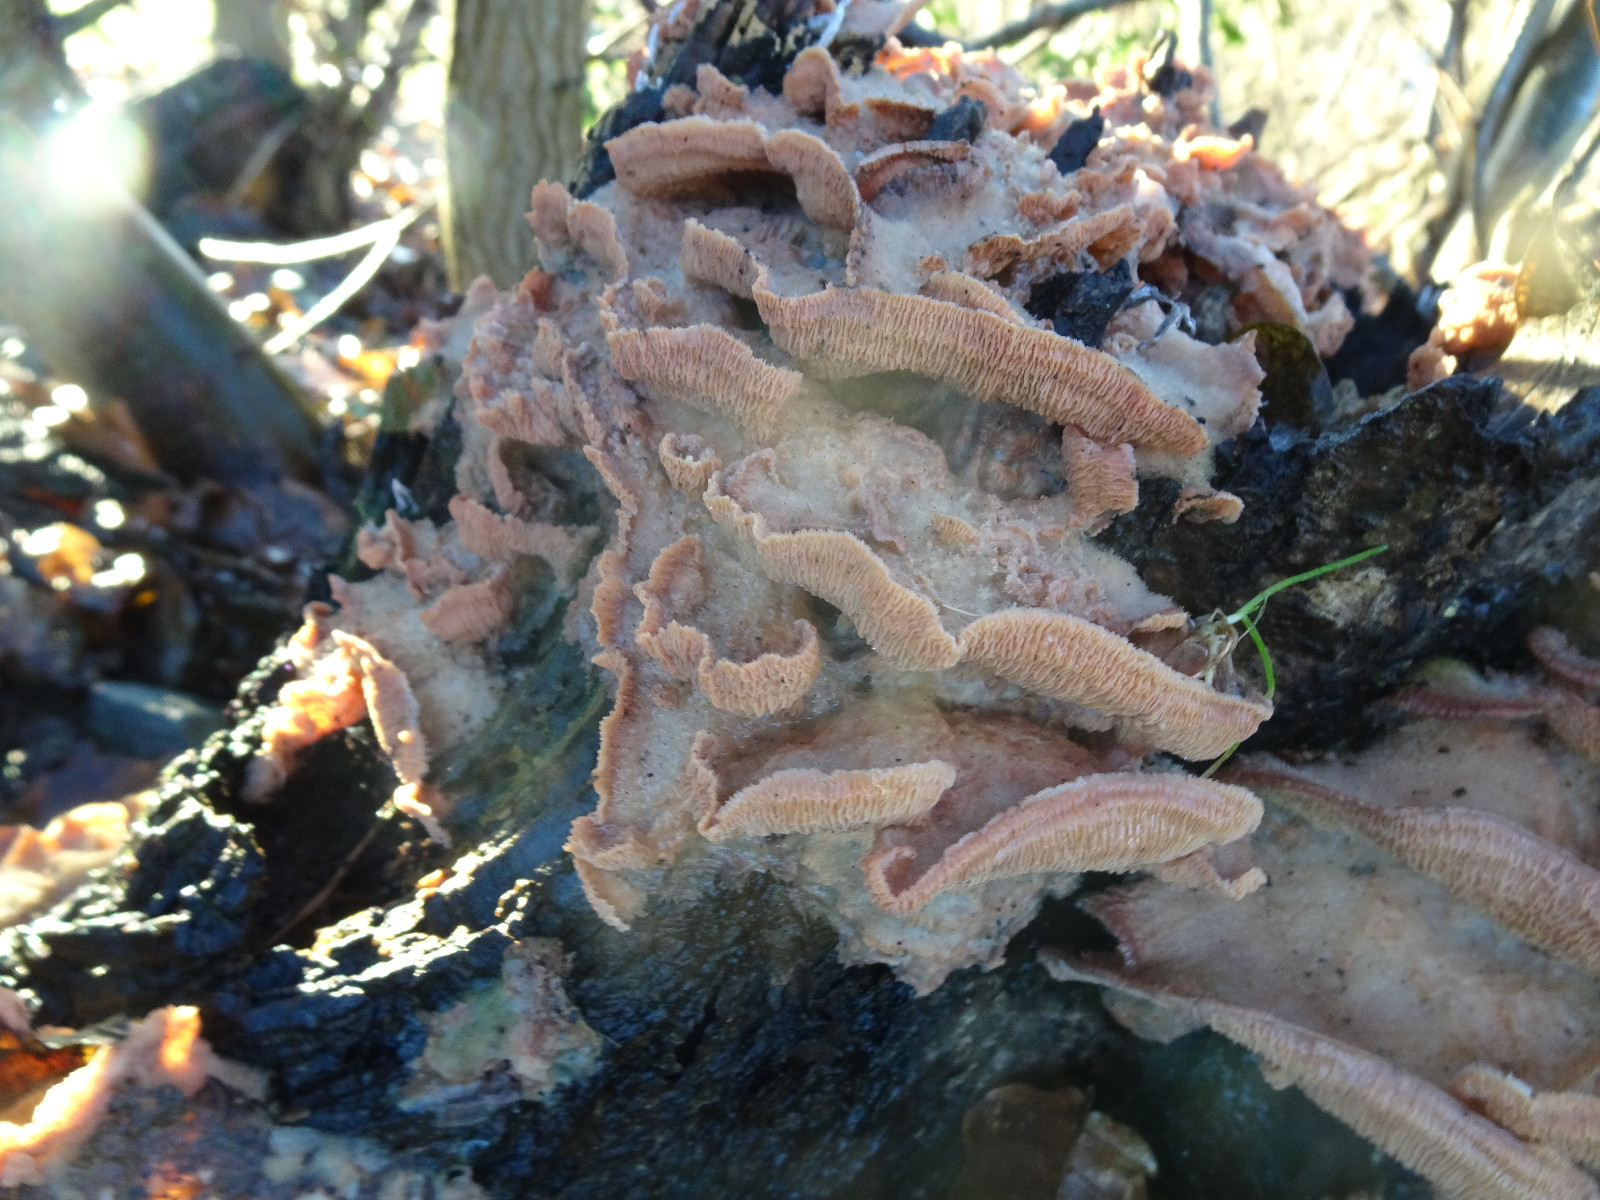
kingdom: Fungi
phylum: Basidiomycota
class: Agaricomycetes
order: Polyporales
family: Meruliaceae
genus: Phlebia
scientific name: Phlebia tremellosa
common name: bævrende åresvamp
